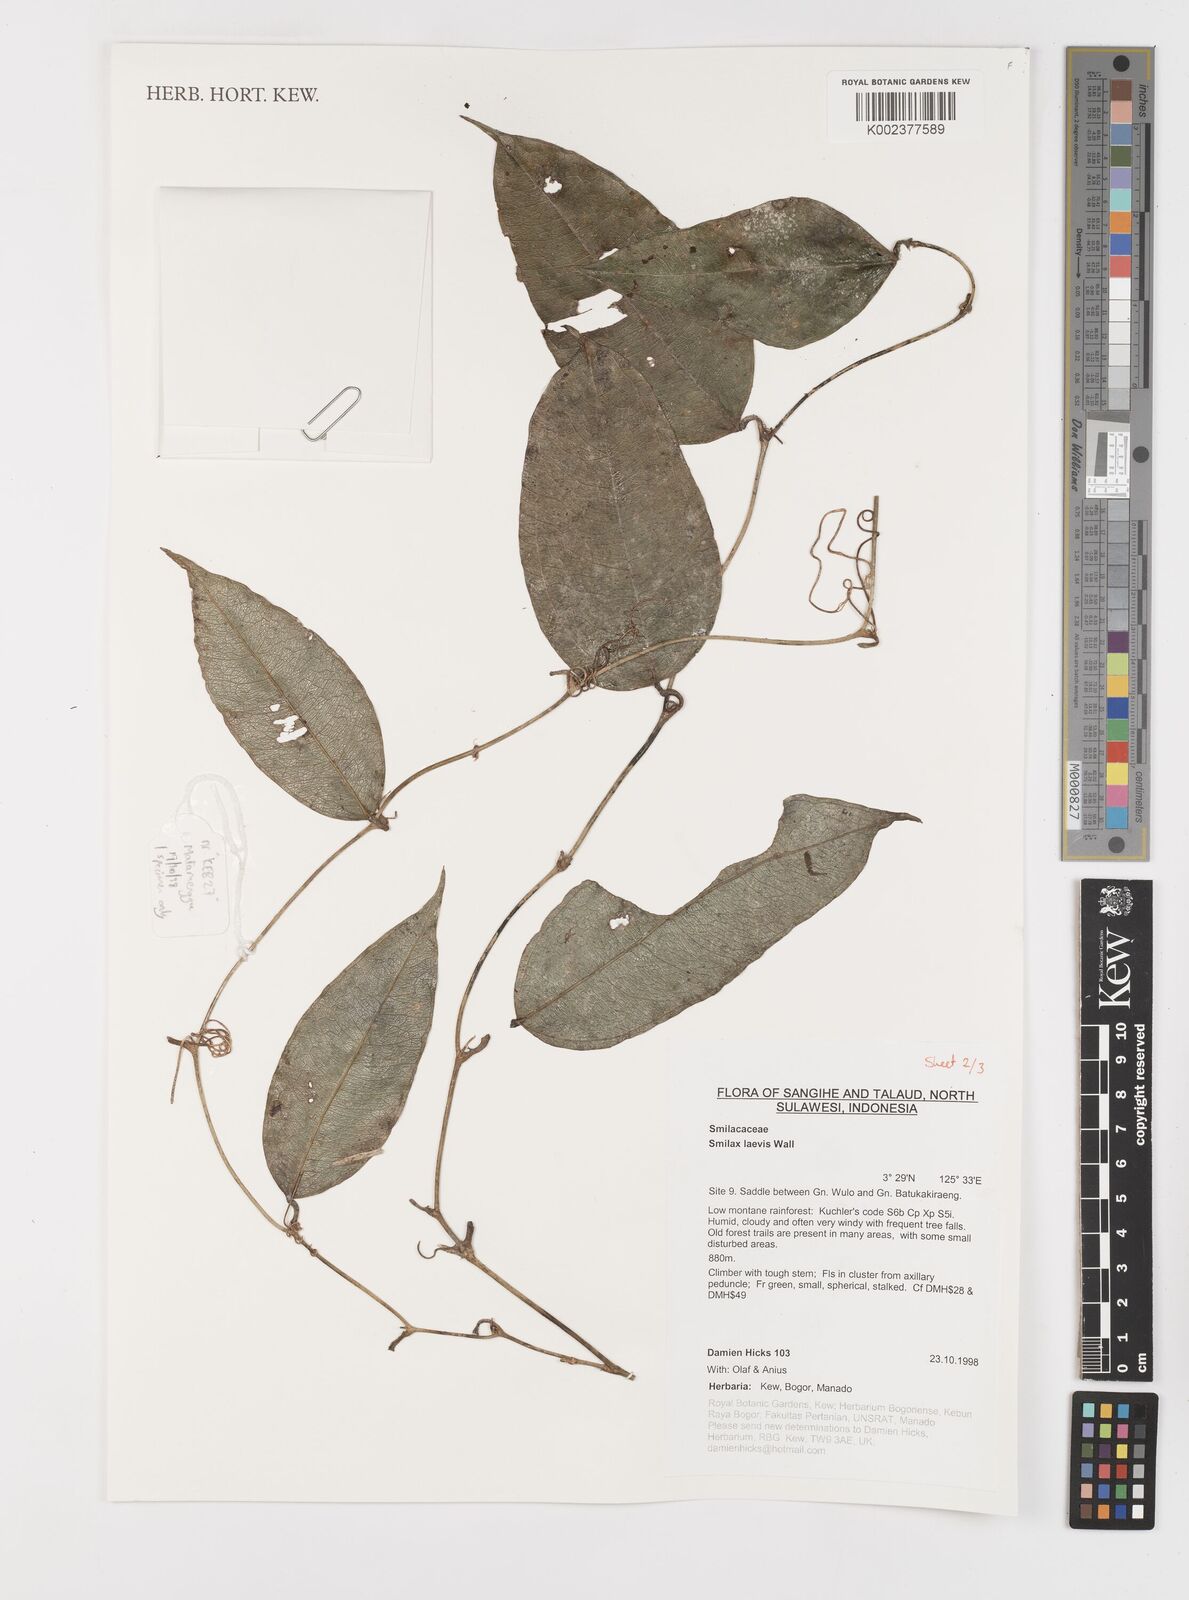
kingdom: Plantae
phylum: Tracheophyta
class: Liliopsida
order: Liliales
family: Smilacaceae
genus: Smilax
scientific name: Smilax laevis
